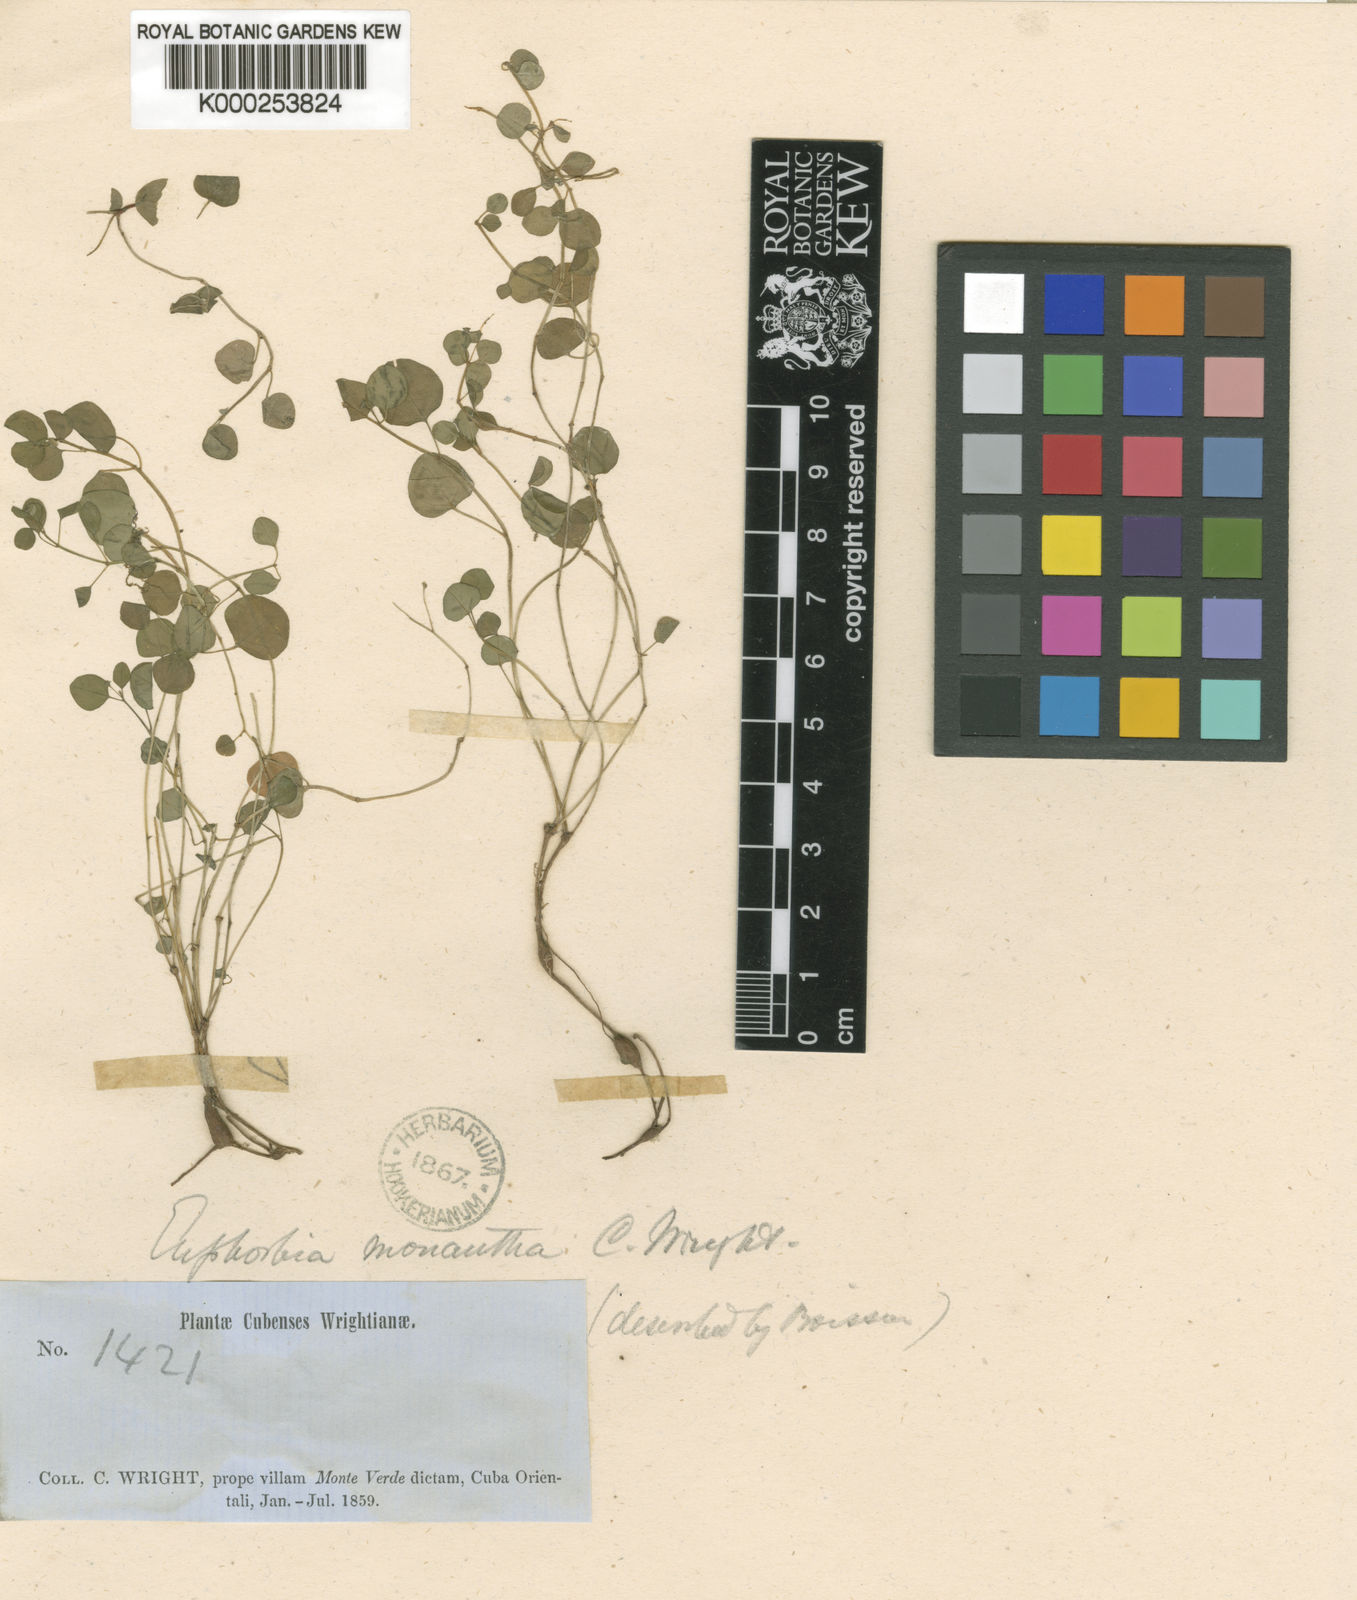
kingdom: Plantae
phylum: Tracheophyta
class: Magnoliopsida
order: Malpighiales
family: Euphorbiaceae
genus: Euphorbia
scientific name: Euphorbia monantha
